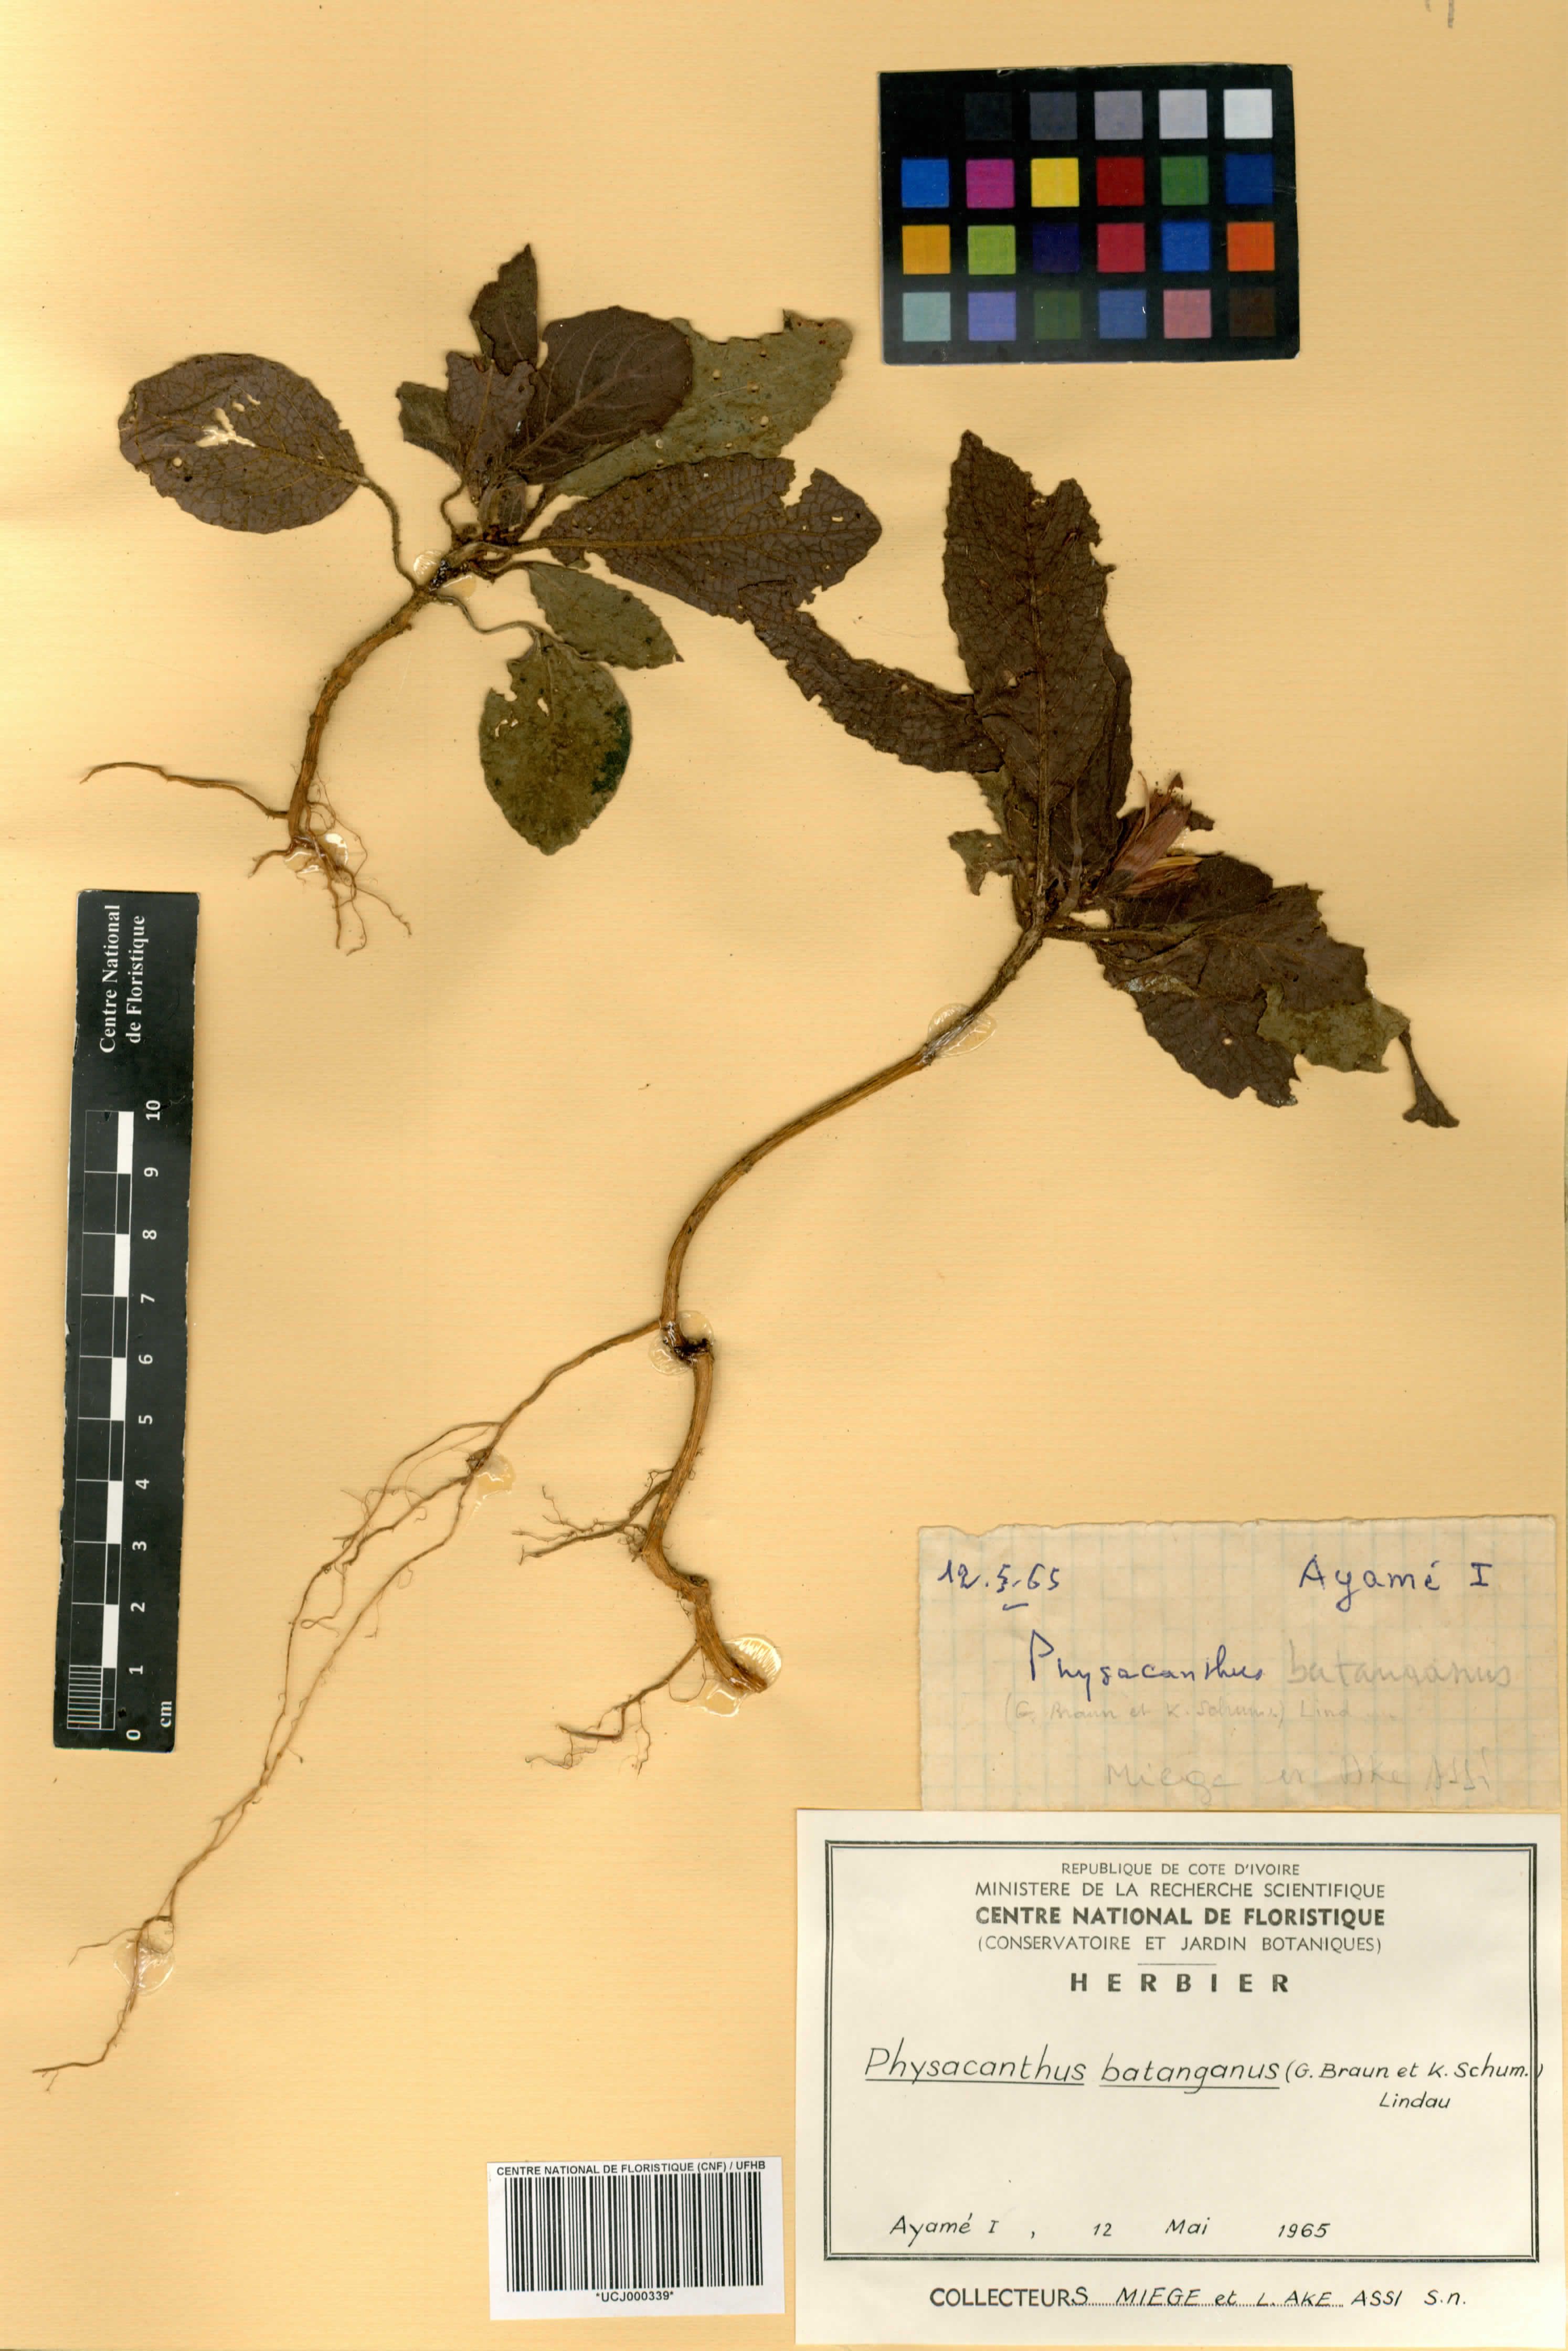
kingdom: Plantae
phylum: Tracheophyta
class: Magnoliopsida
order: Lamiales
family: Acanthaceae
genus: Physacanthus
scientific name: Physacanthus batanganus
